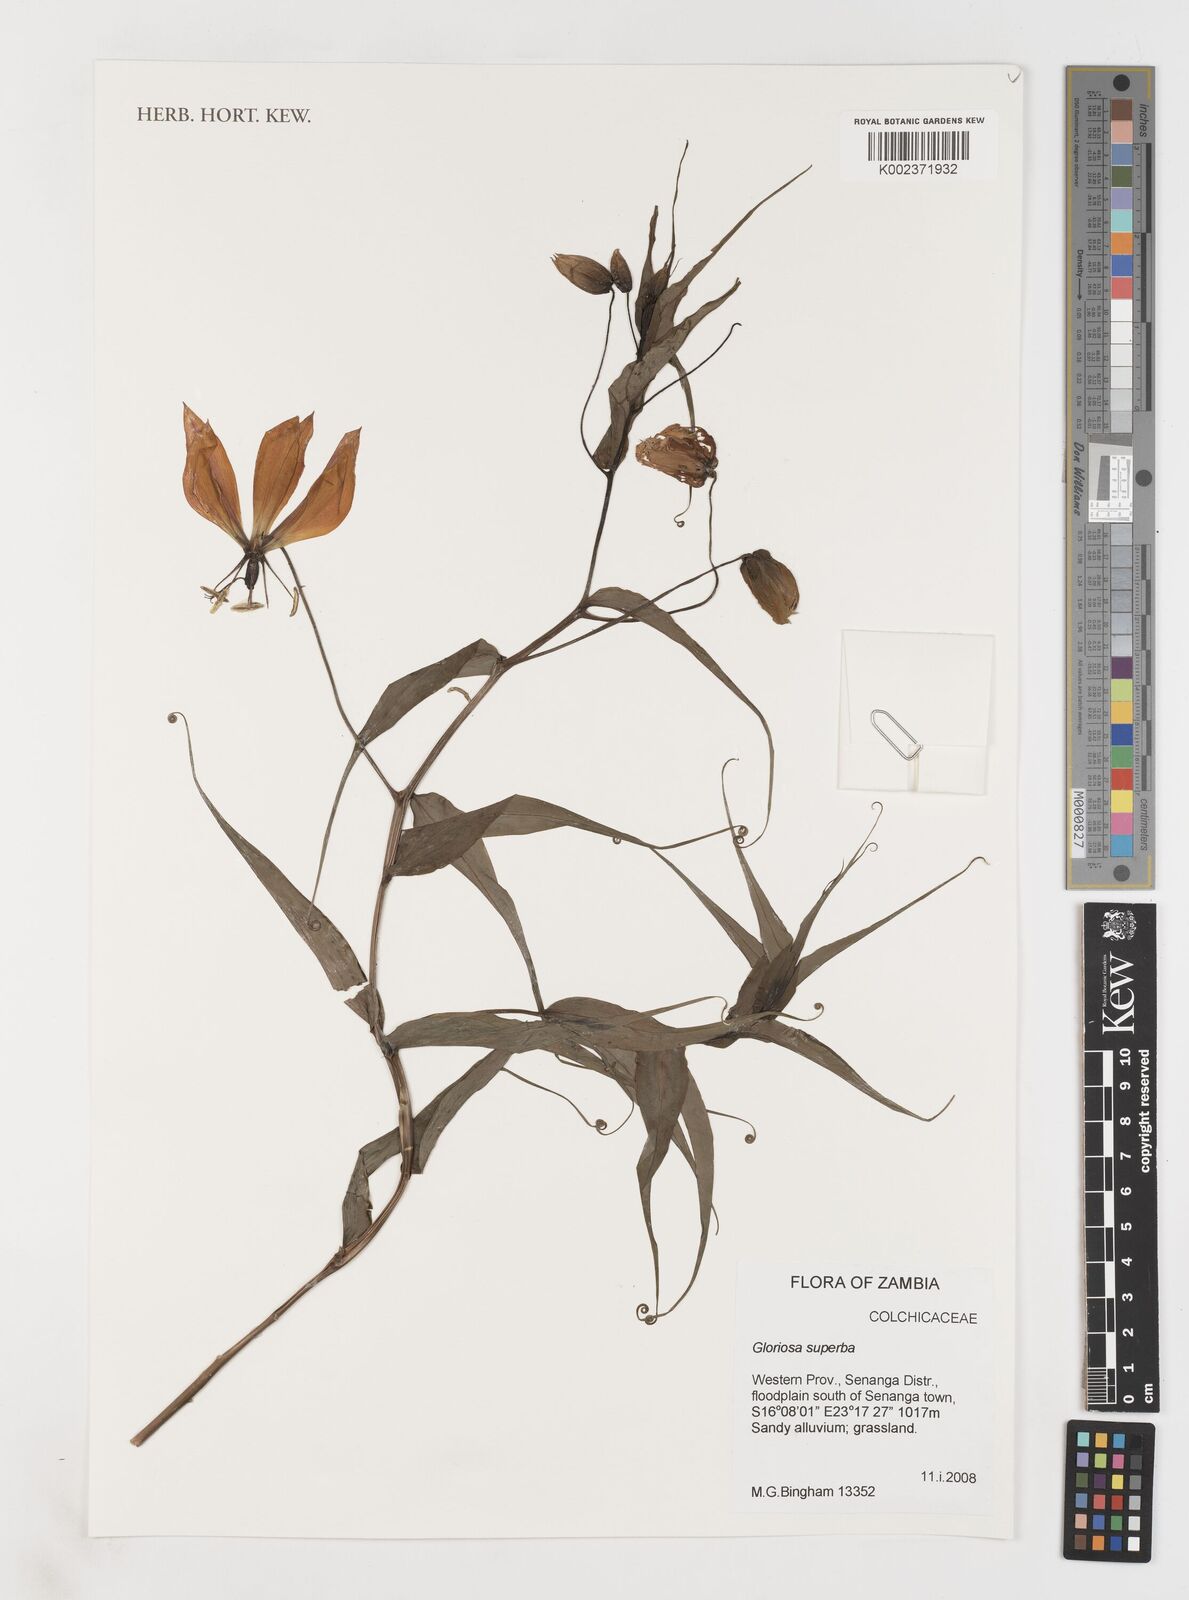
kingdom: Plantae
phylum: Tracheophyta
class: Liliopsida
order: Liliales
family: Colchicaceae
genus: Gloriosa
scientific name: Gloriosa simplex
